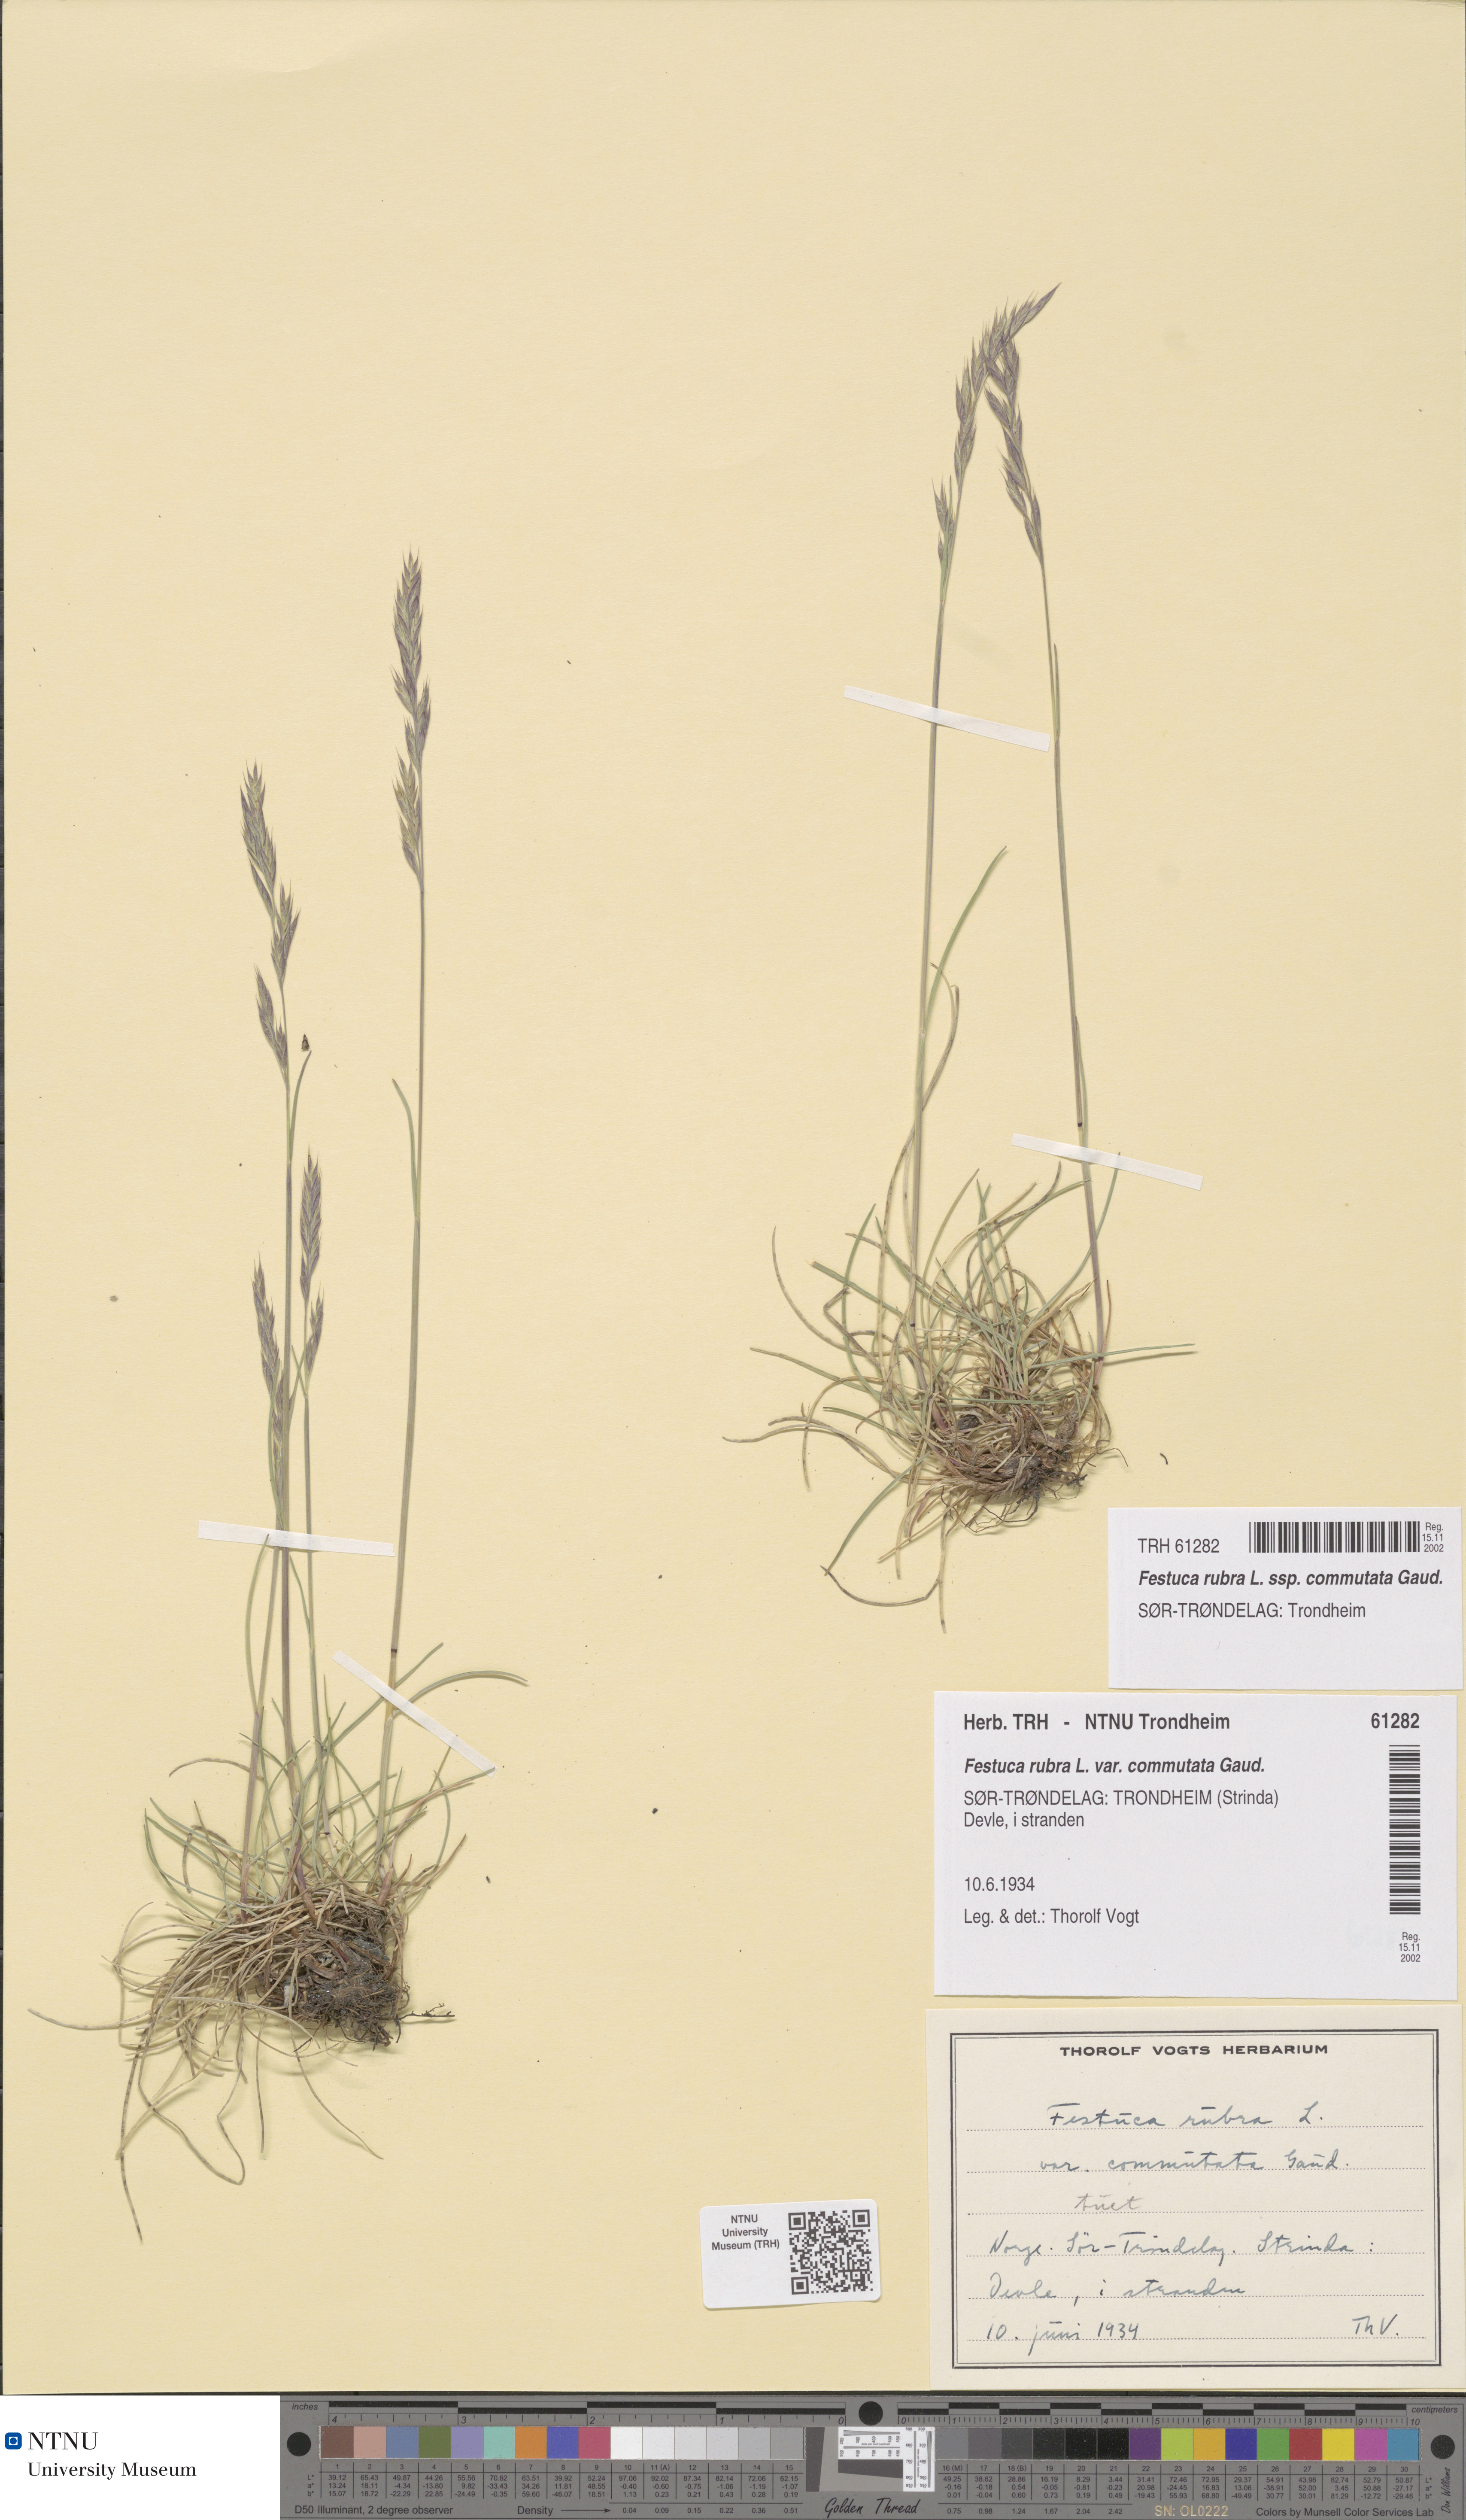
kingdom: Plantae
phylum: Tracheophyta
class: Liliopsida
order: Poales
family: Poaceae
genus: Festuca
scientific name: Festuca rubra
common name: Red fescue
